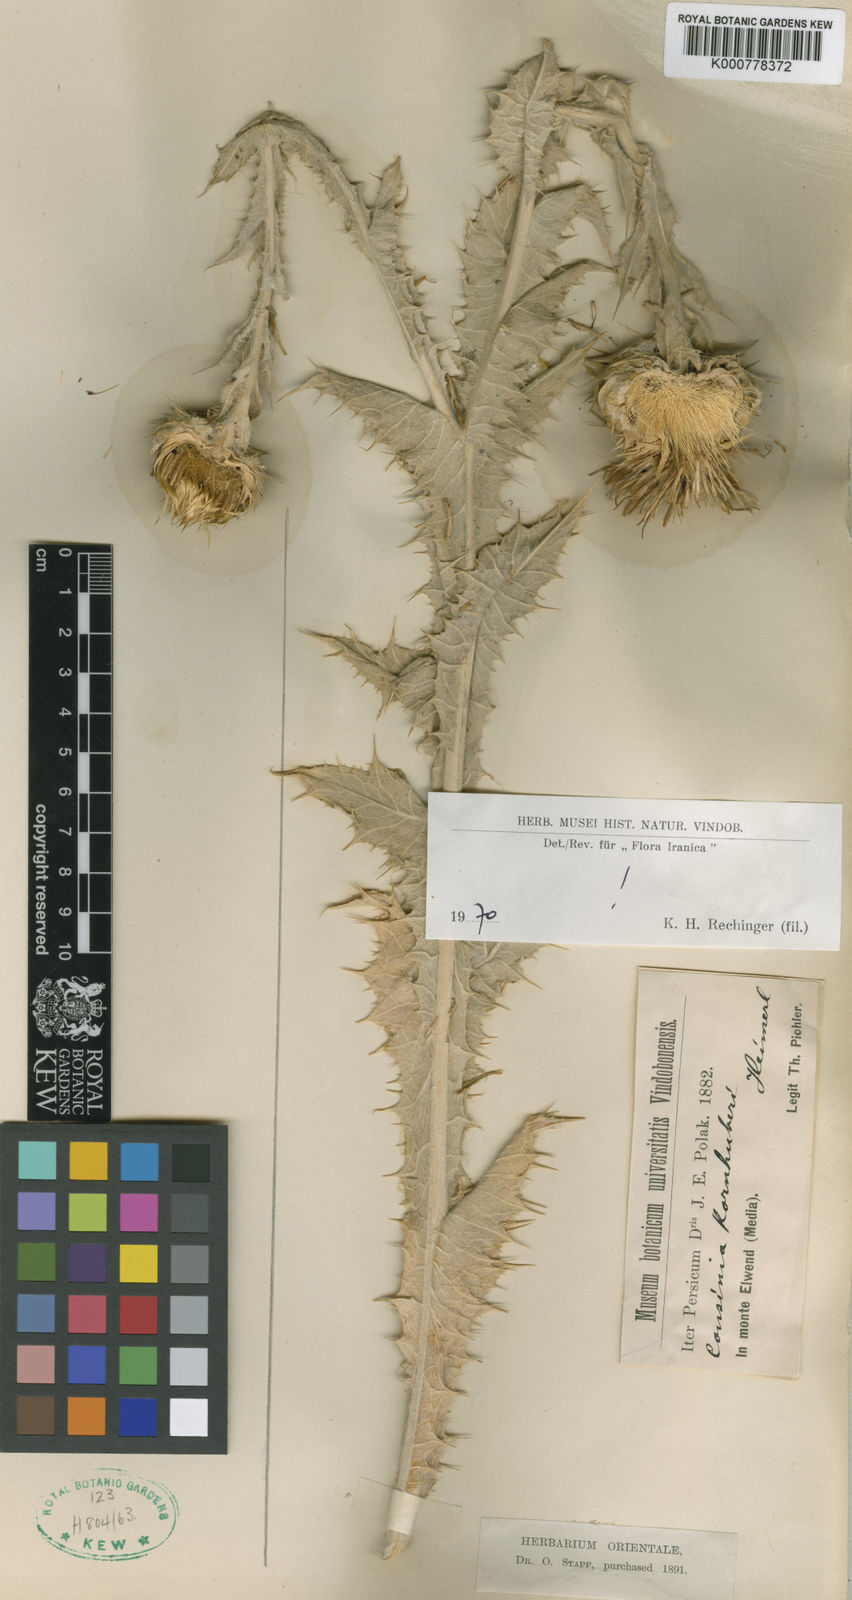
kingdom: Plantae
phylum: Tracheophyta
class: Magnoliopsida
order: Asterales
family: Asteraceae
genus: Cousinia
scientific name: Cousinia kornhuberi
